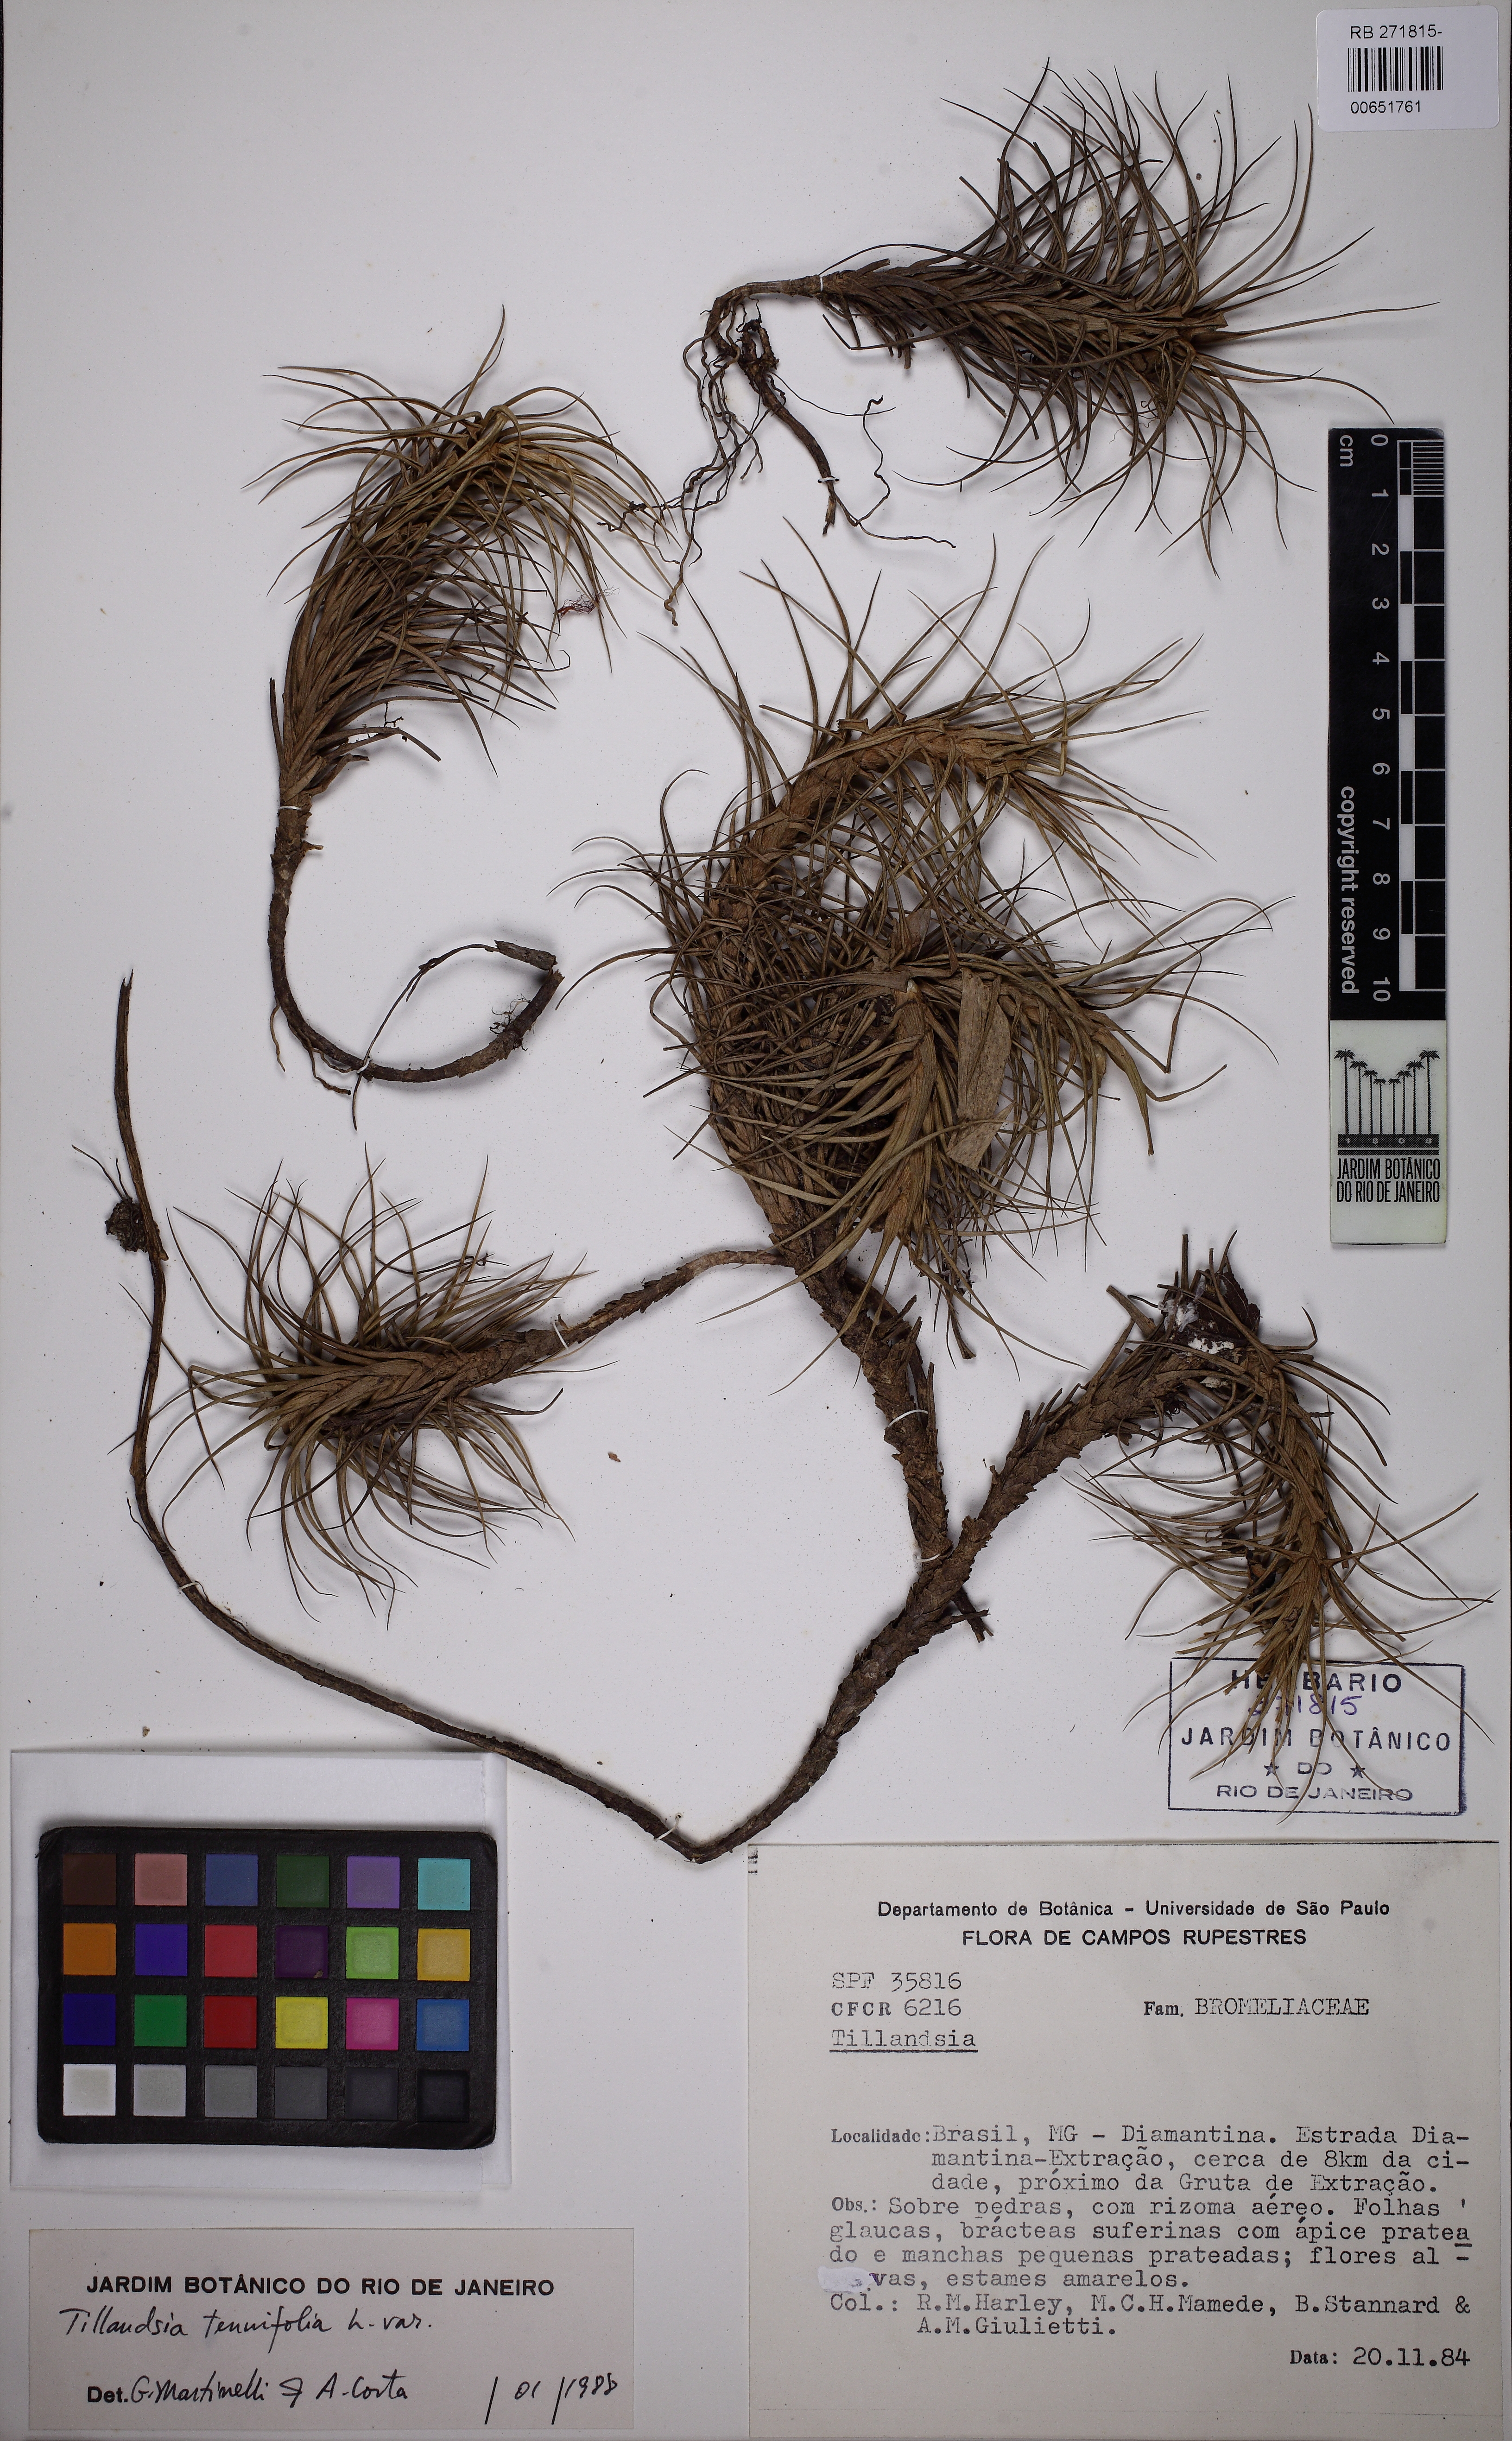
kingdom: Plantae
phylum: Tracheophyta
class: Liliopsida
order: Poales
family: Bromeliaceae
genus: Tillandsia
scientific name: Tillandsia tenuifolia
